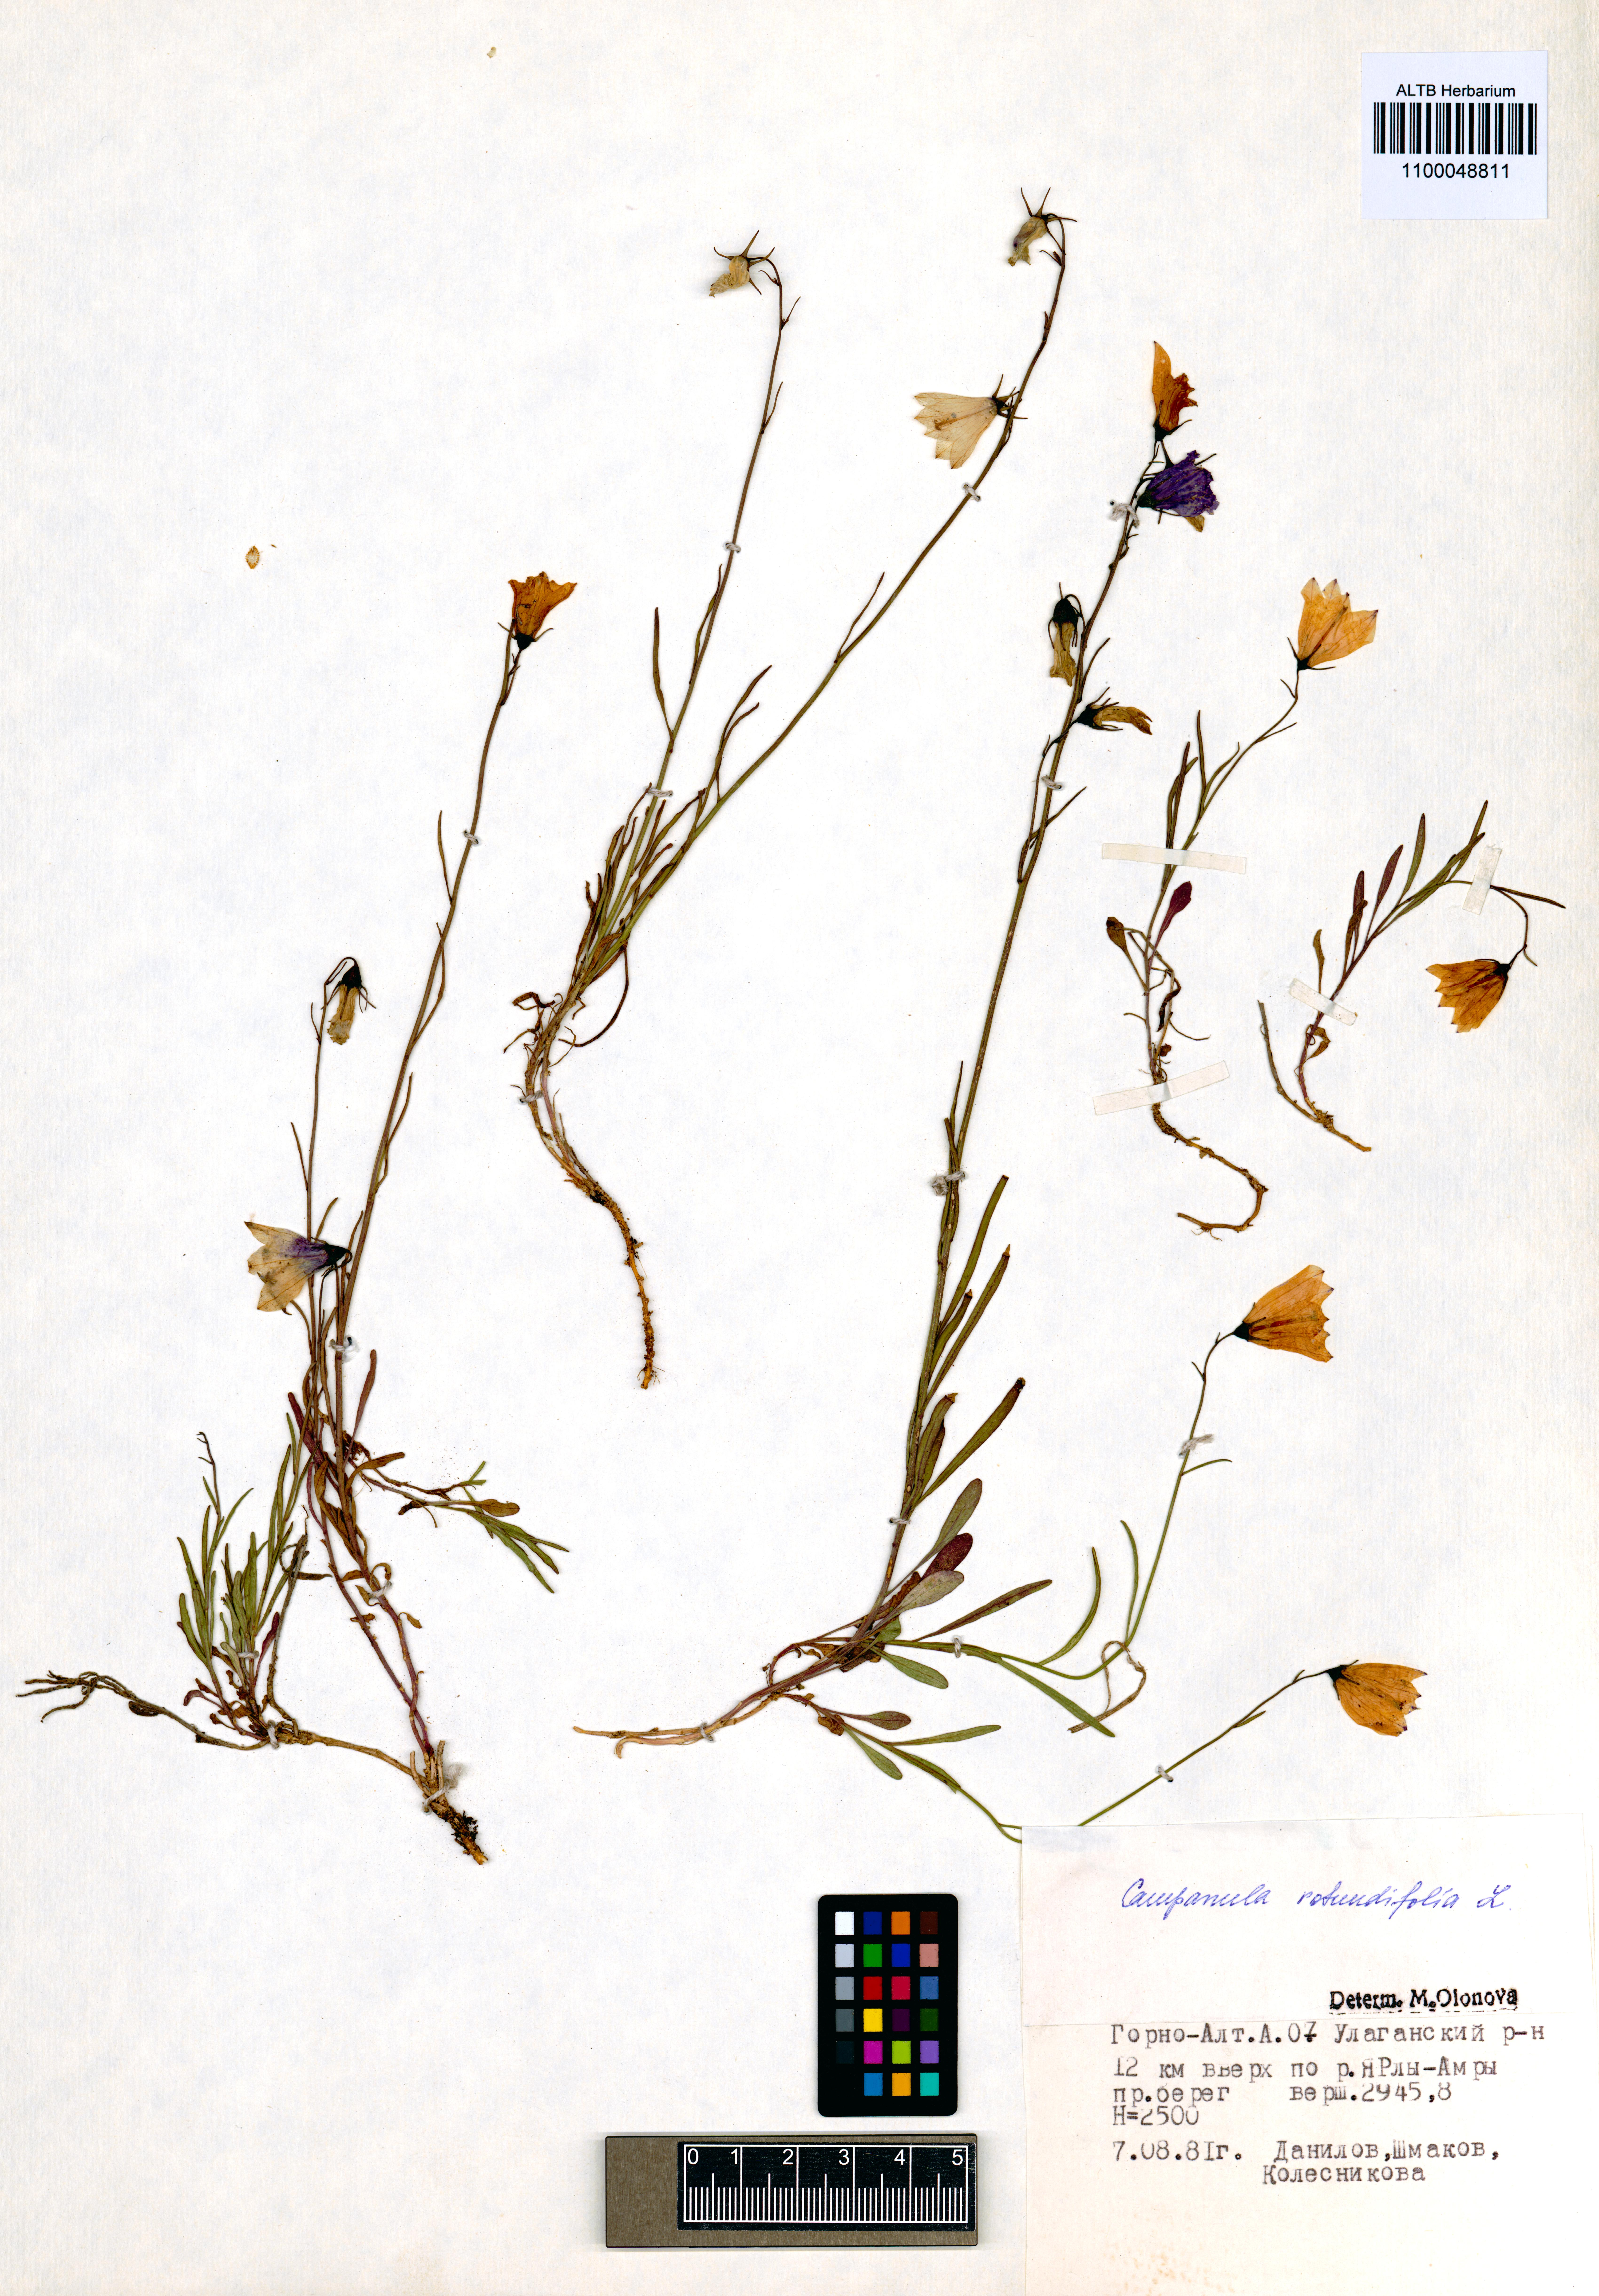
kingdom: Plantae
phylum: Tracheophyta
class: Magnoliopsida
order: Asterales
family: Campanulaceae
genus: Campanula
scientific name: Campanula rotundifolia
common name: Harebell
